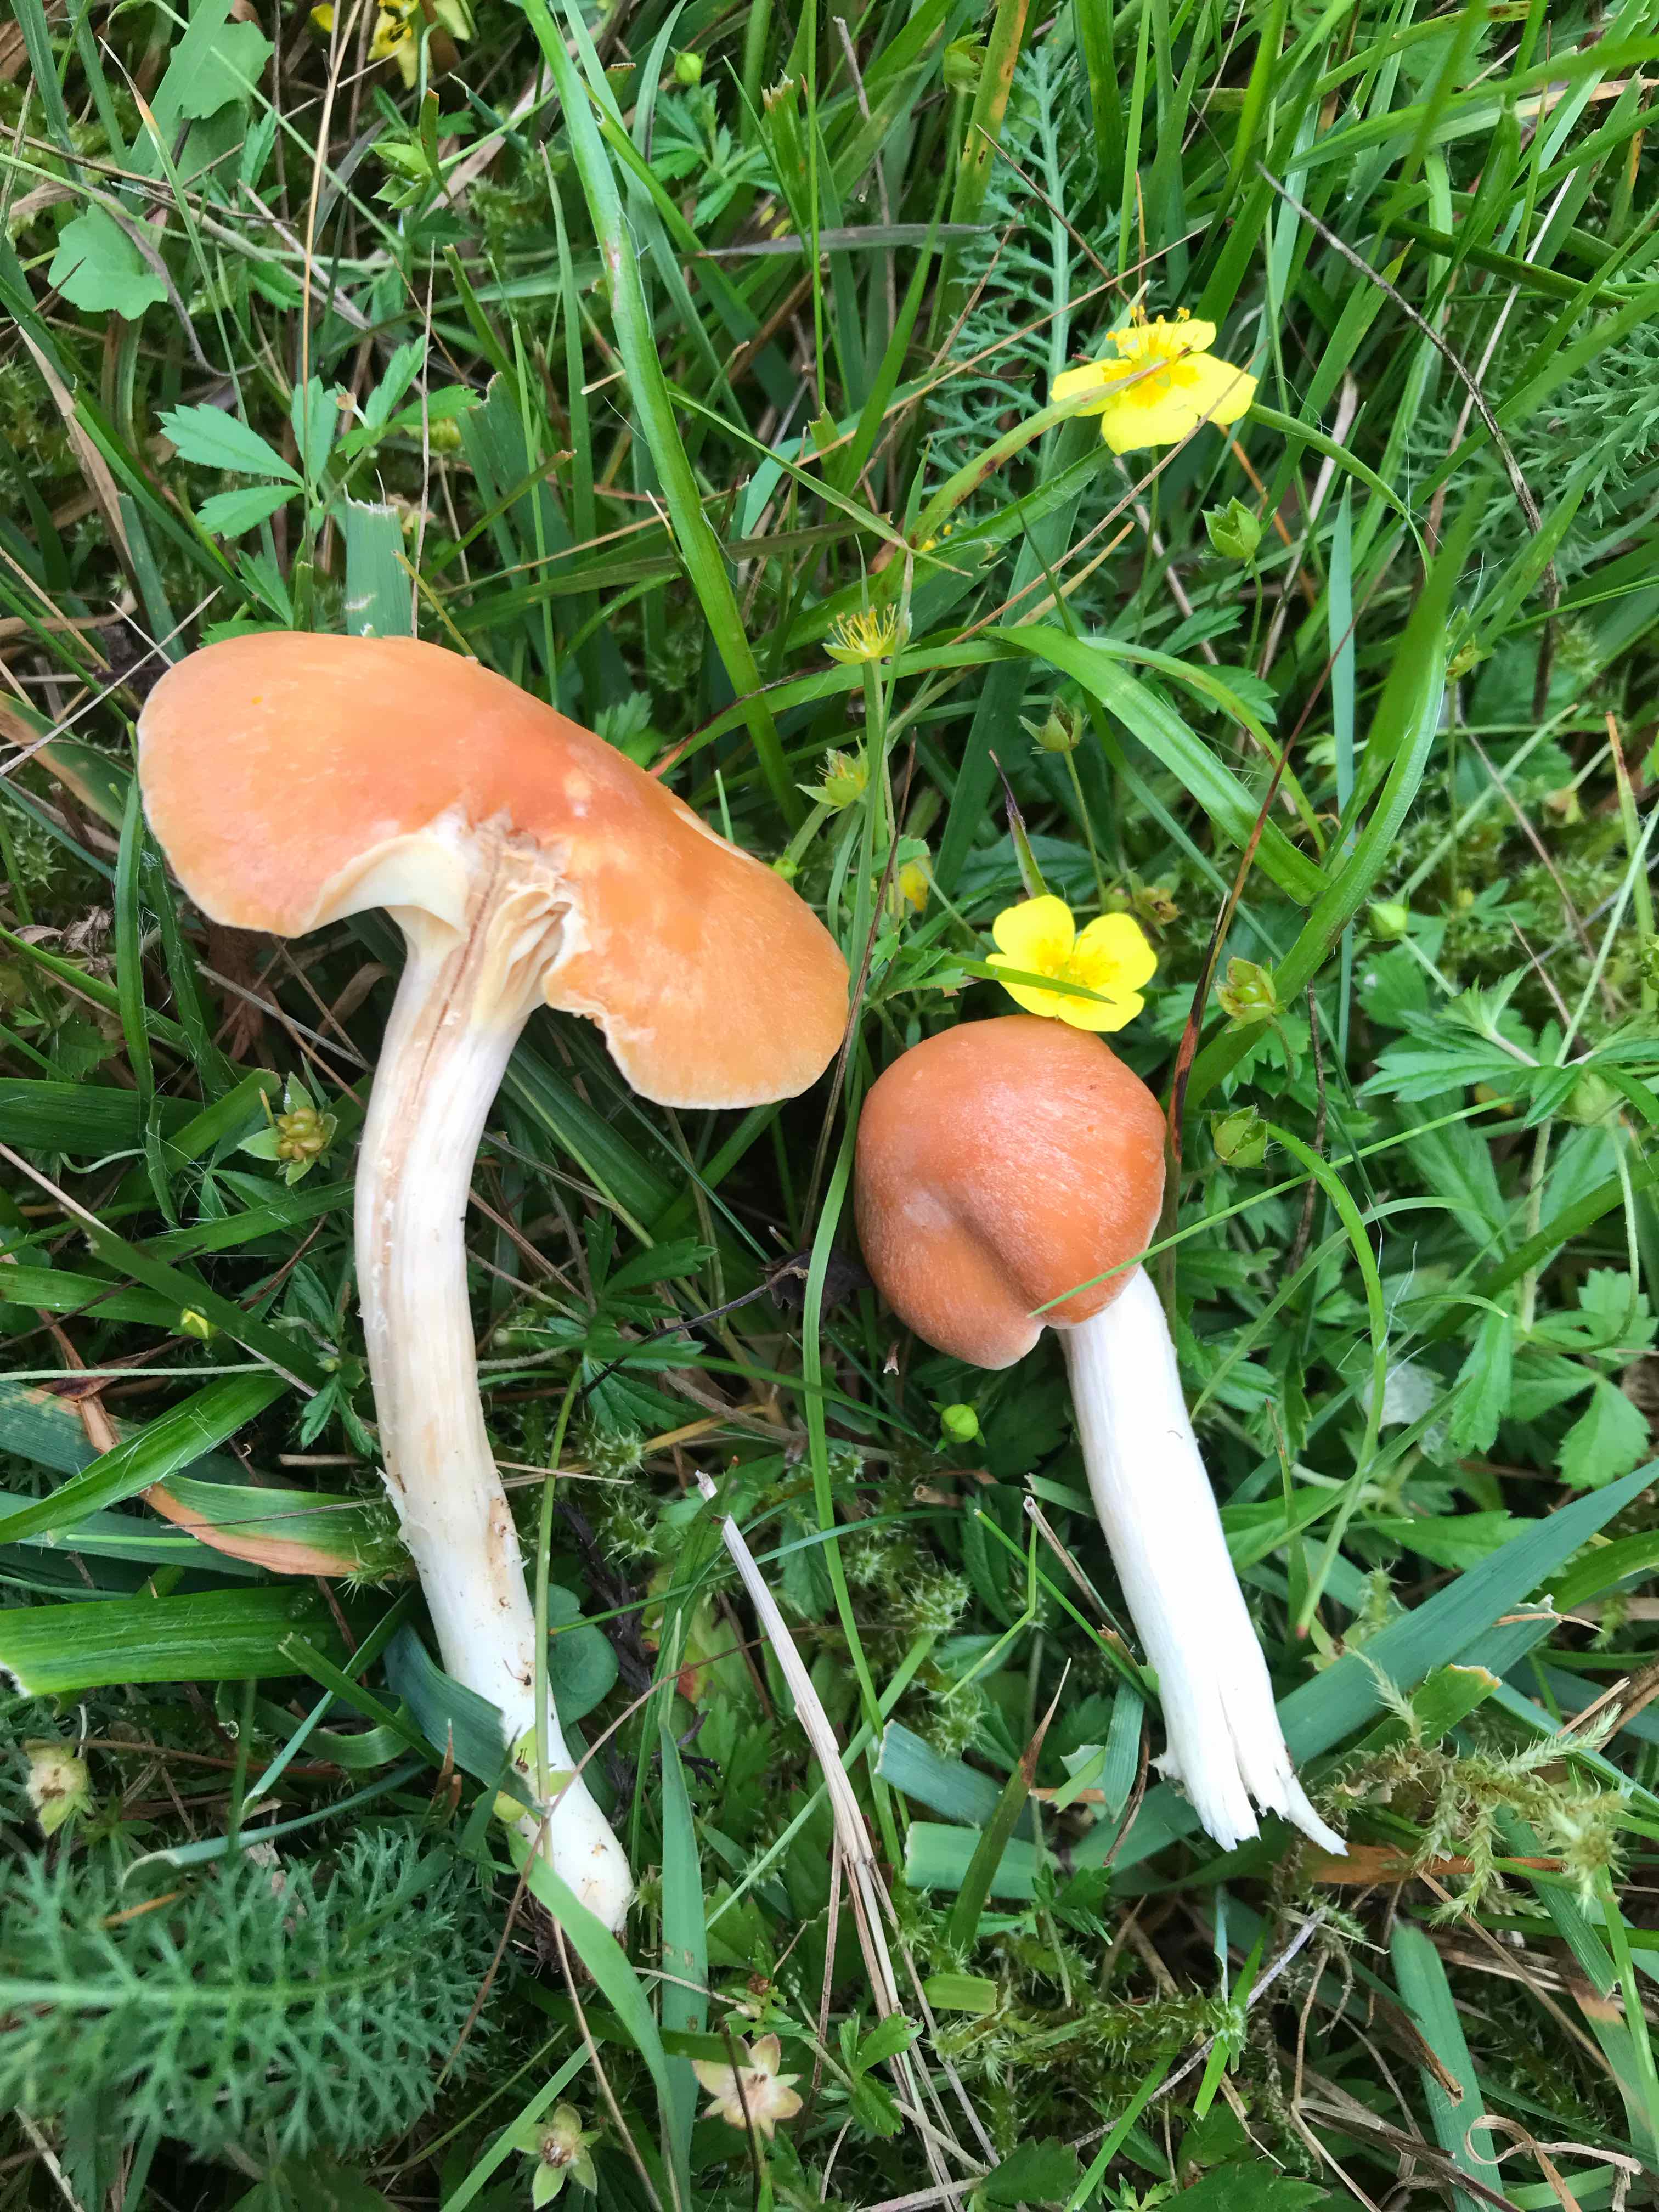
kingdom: Fungi
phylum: Basidiomycota
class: Agaricomycetes
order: Agaricales
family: Hygrophoraceae
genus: Cuphophyllus
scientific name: Cuphophyllus pratensis
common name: eng-vokshat
